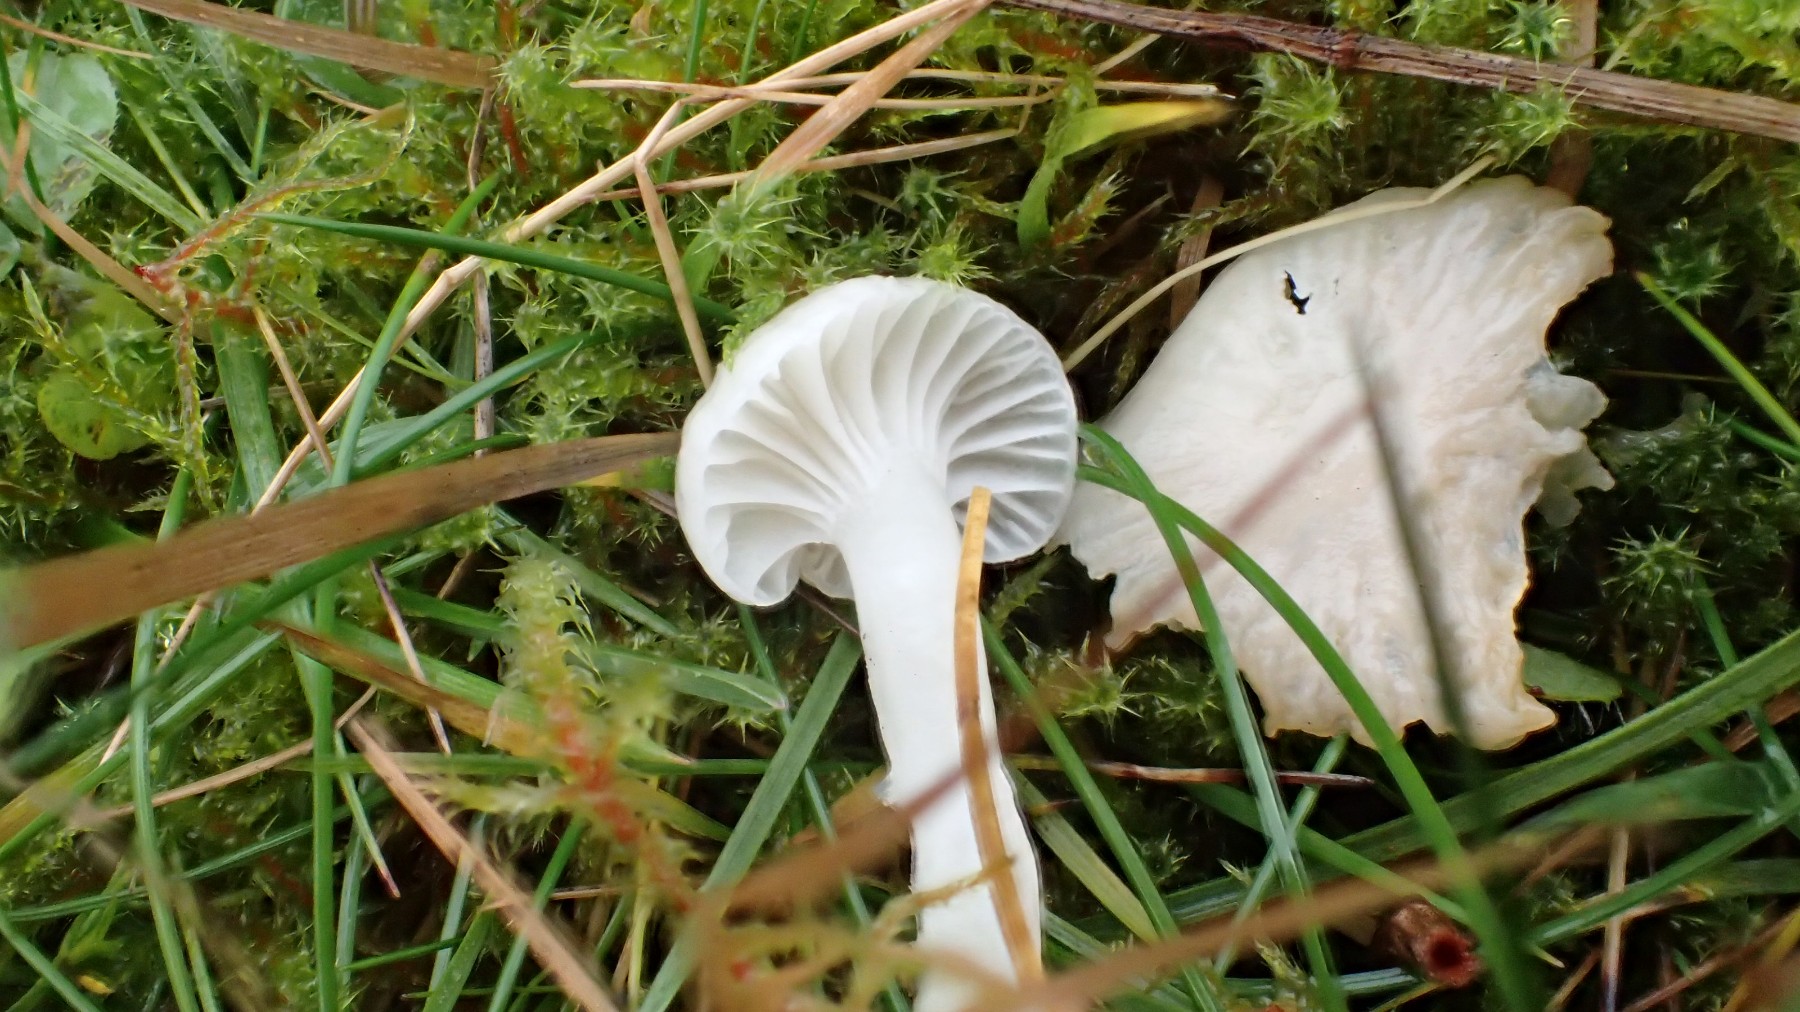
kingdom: Fungi
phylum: Basidiomycota
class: Agaricomycetes
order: Agaricales
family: Hygrophoraceae
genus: Cuphophyllus
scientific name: Cuphophyllus virgineus
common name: snehvid vokshat
